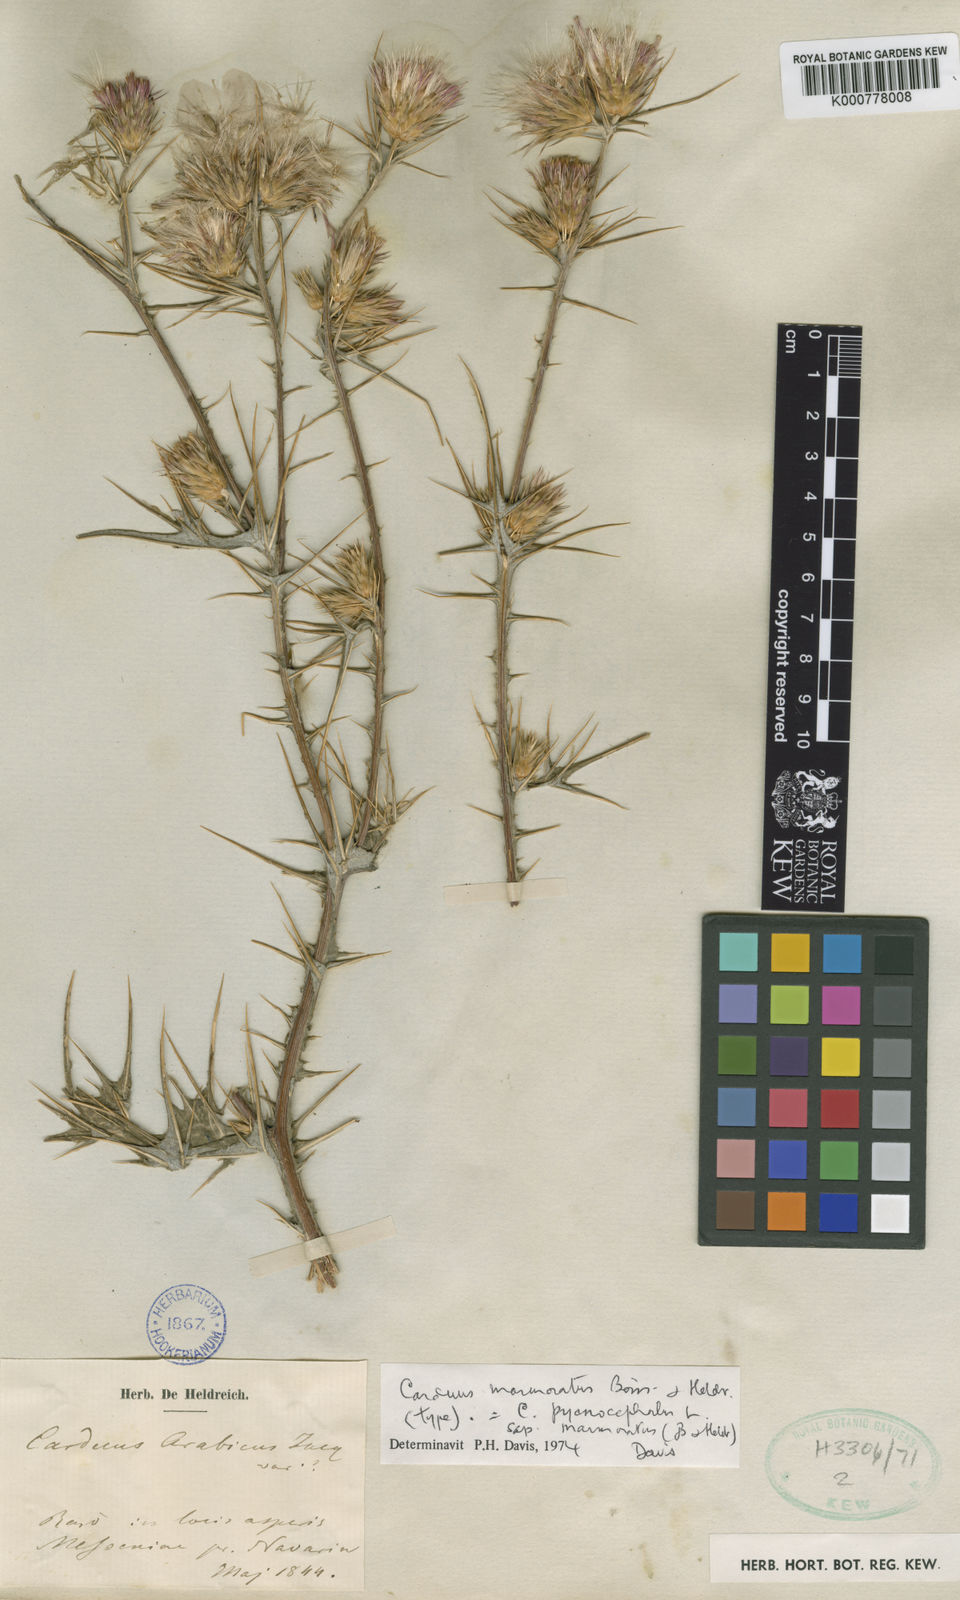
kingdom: Plantae
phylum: Tracheophyta
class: Magnoliopsida
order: Asterales
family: Asteraceae
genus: Carduus
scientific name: Carduus arabicus
